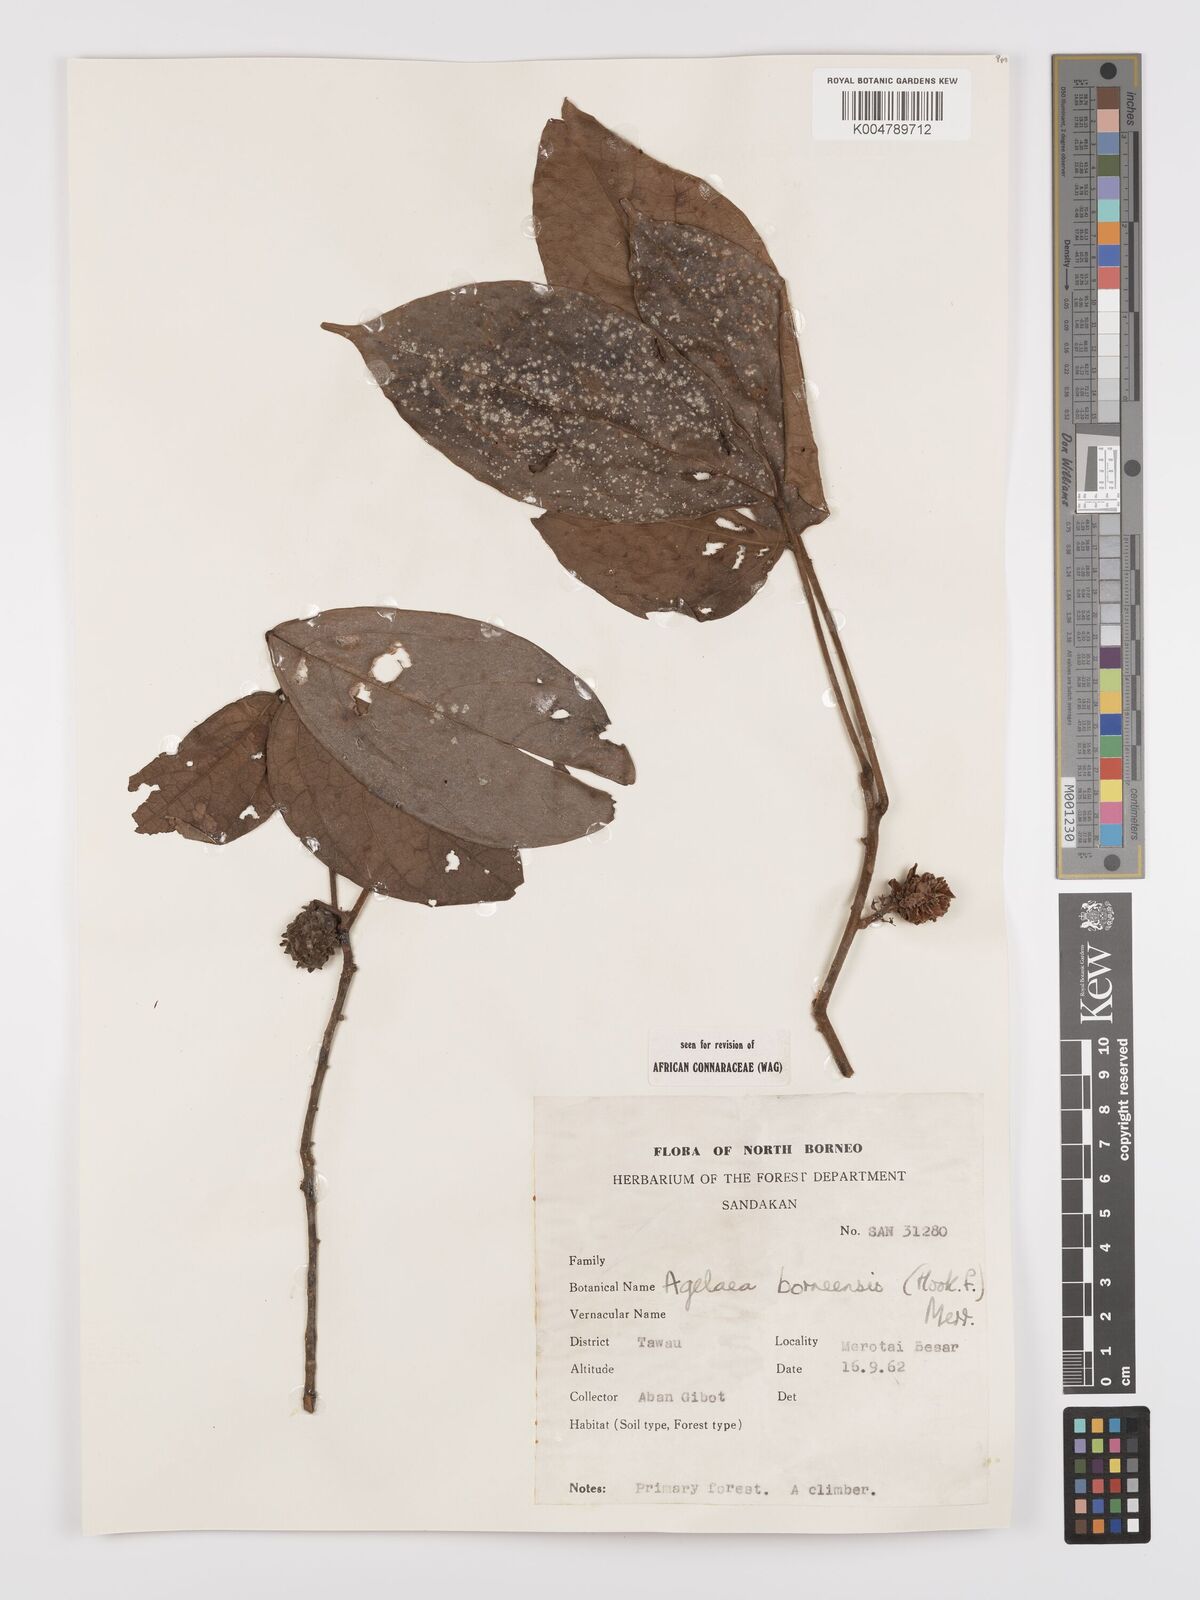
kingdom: Plantae
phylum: Tracheophyta
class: Magnoliopsida
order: Oxalidales
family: Connaraceae
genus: Agelaea
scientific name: Agelaea borneensis
